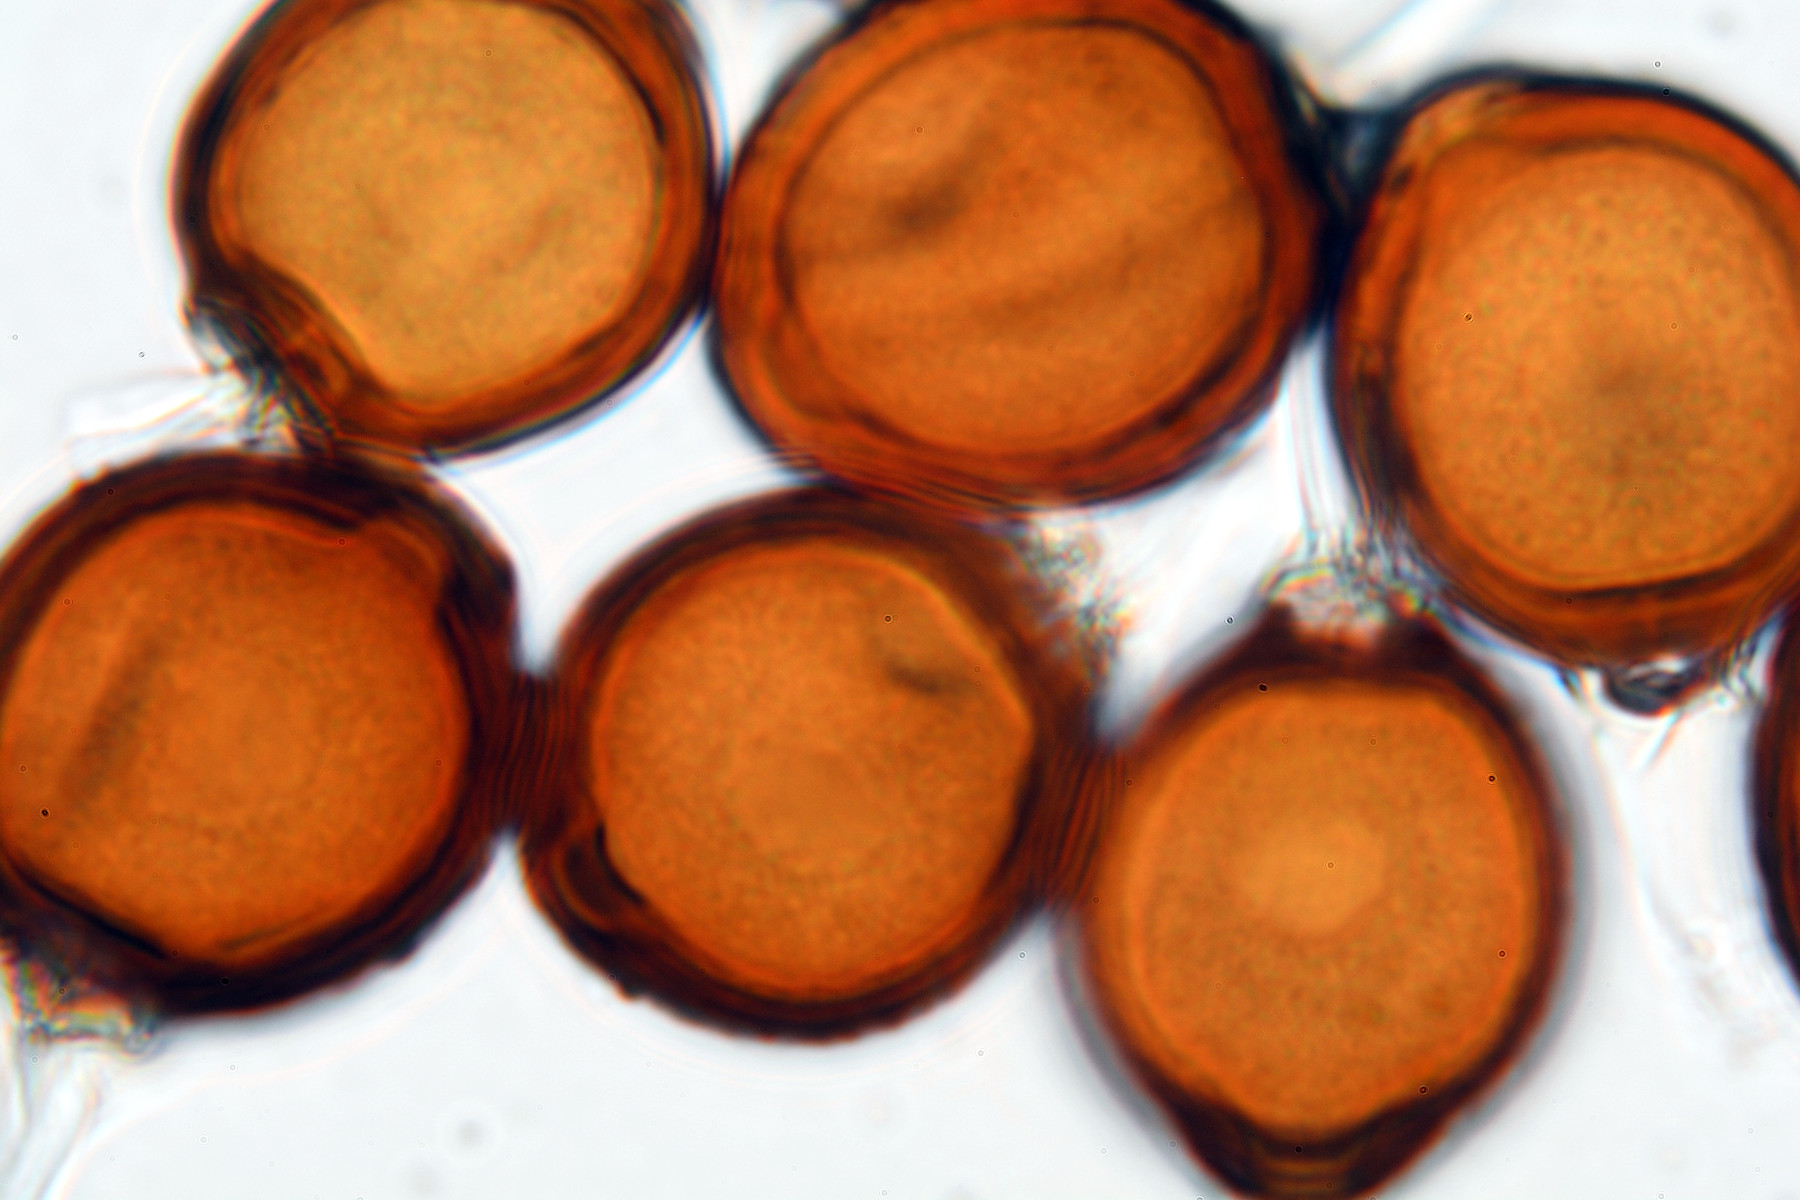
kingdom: Fungi
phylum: Basidiomycota
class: Pucciniomycetes
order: Pucciniales
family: Pucciniaceae
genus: Uromyces
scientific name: Uromyces appendiculatus
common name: Runner bean rust
